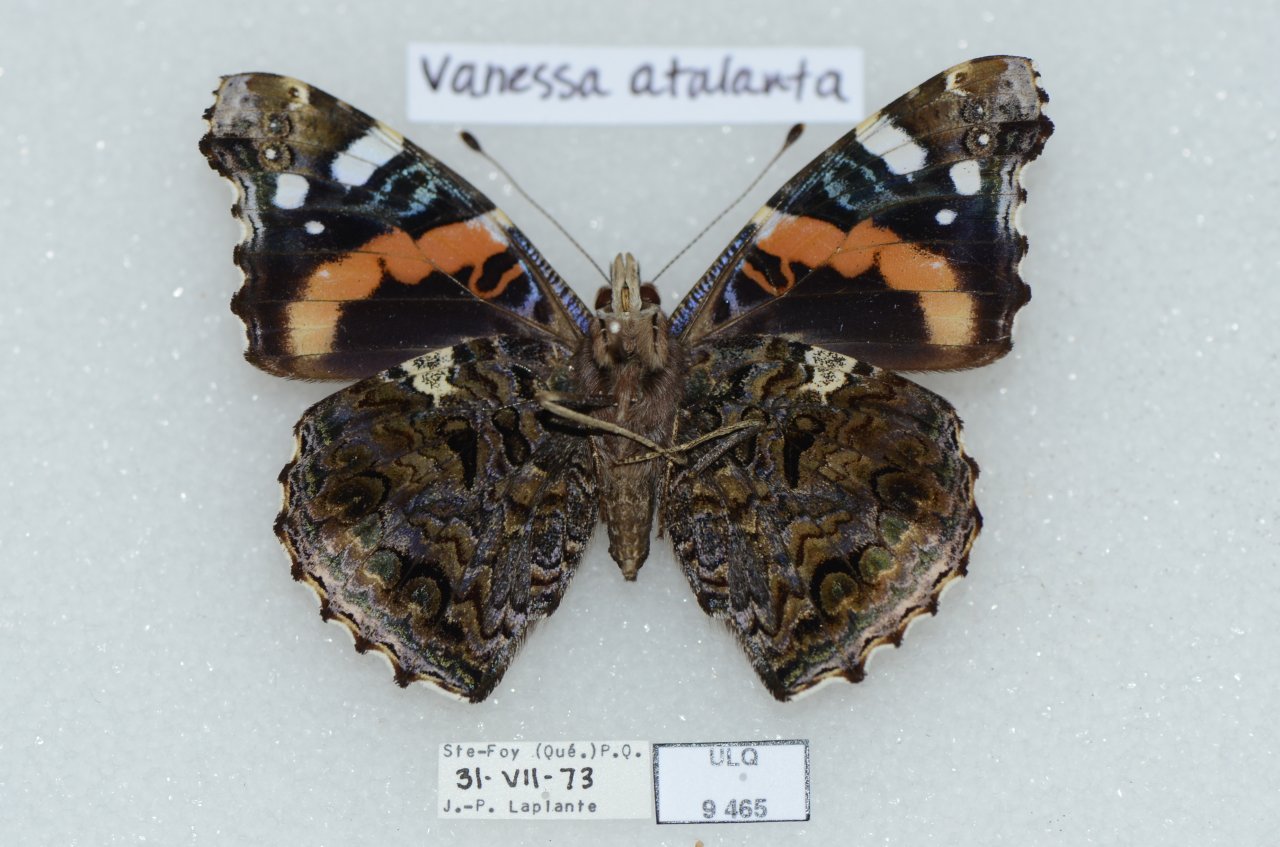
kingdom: Animalia
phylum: Arthropoda
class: Insecta
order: Lepidoptera
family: Nymphalidae
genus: Vanessa
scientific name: Vanessa atalanta
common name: Red Admiral
